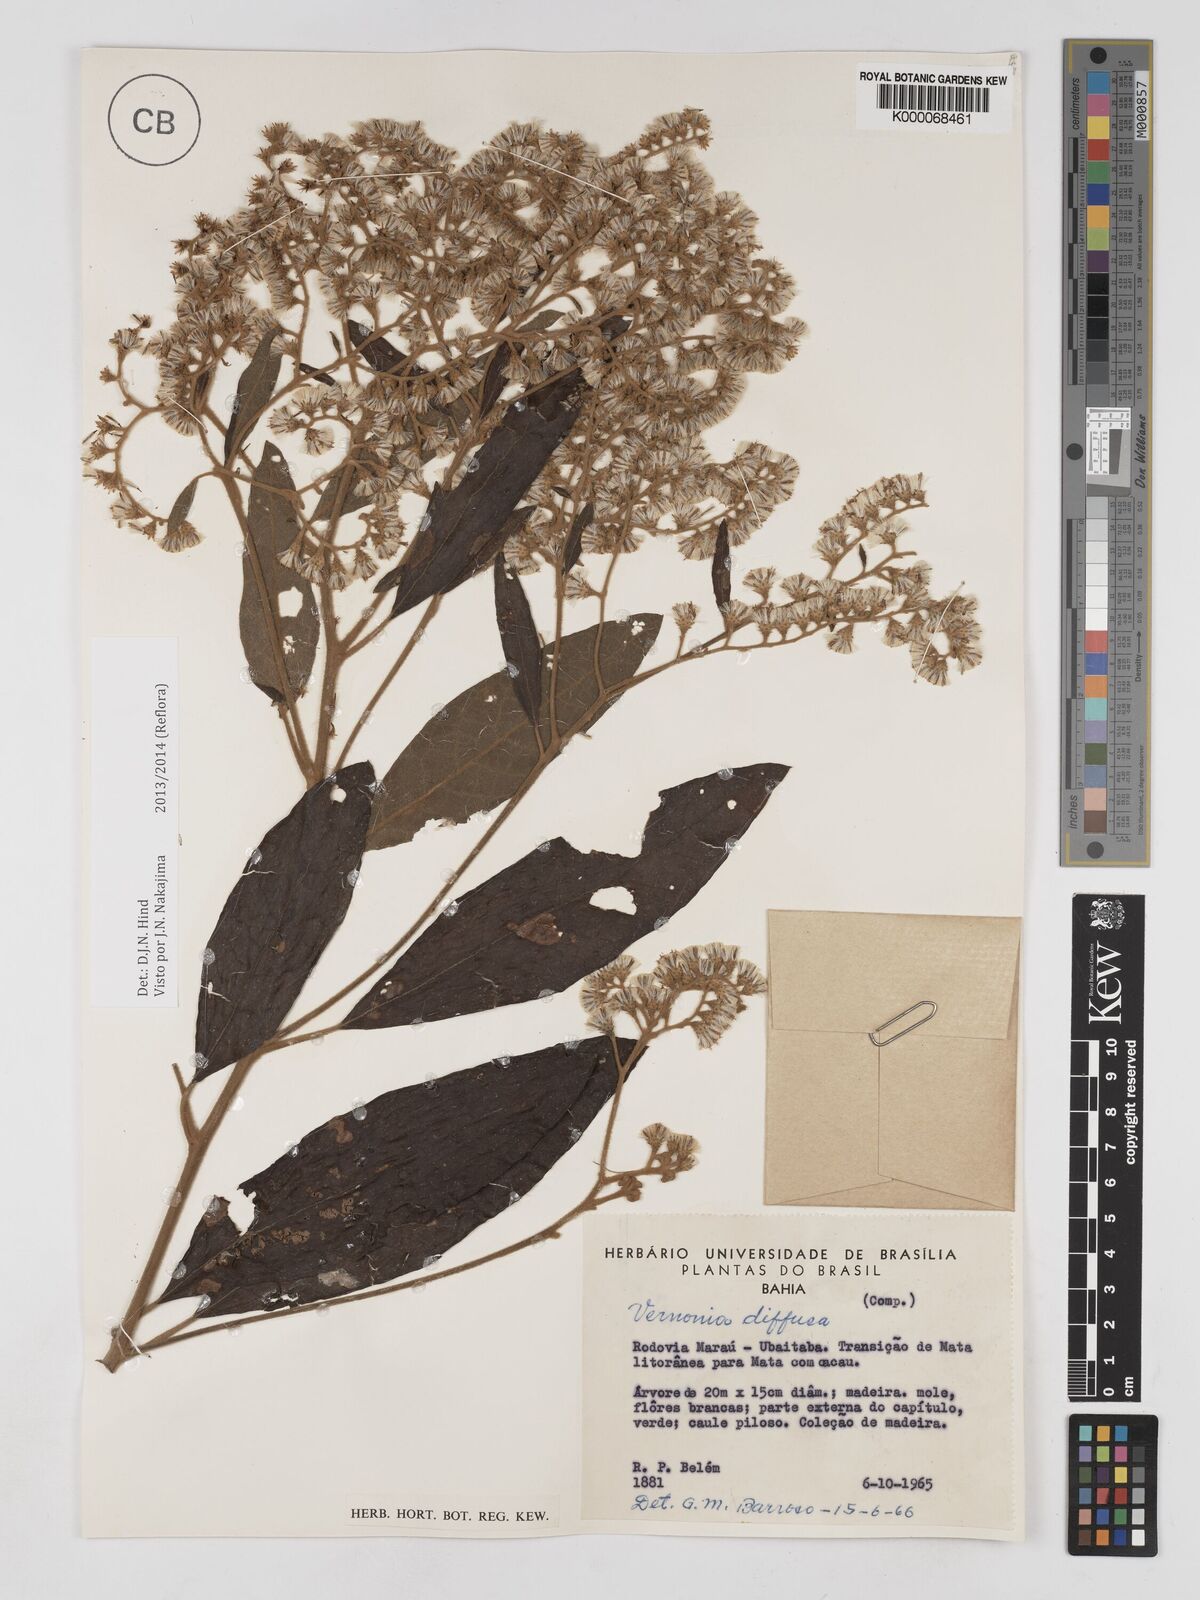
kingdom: Plantae
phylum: Tracheophyta
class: Magnoliopsida
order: Asterales
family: Asteraceae
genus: Vernonanthura
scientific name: Vernonanthura divaricata
